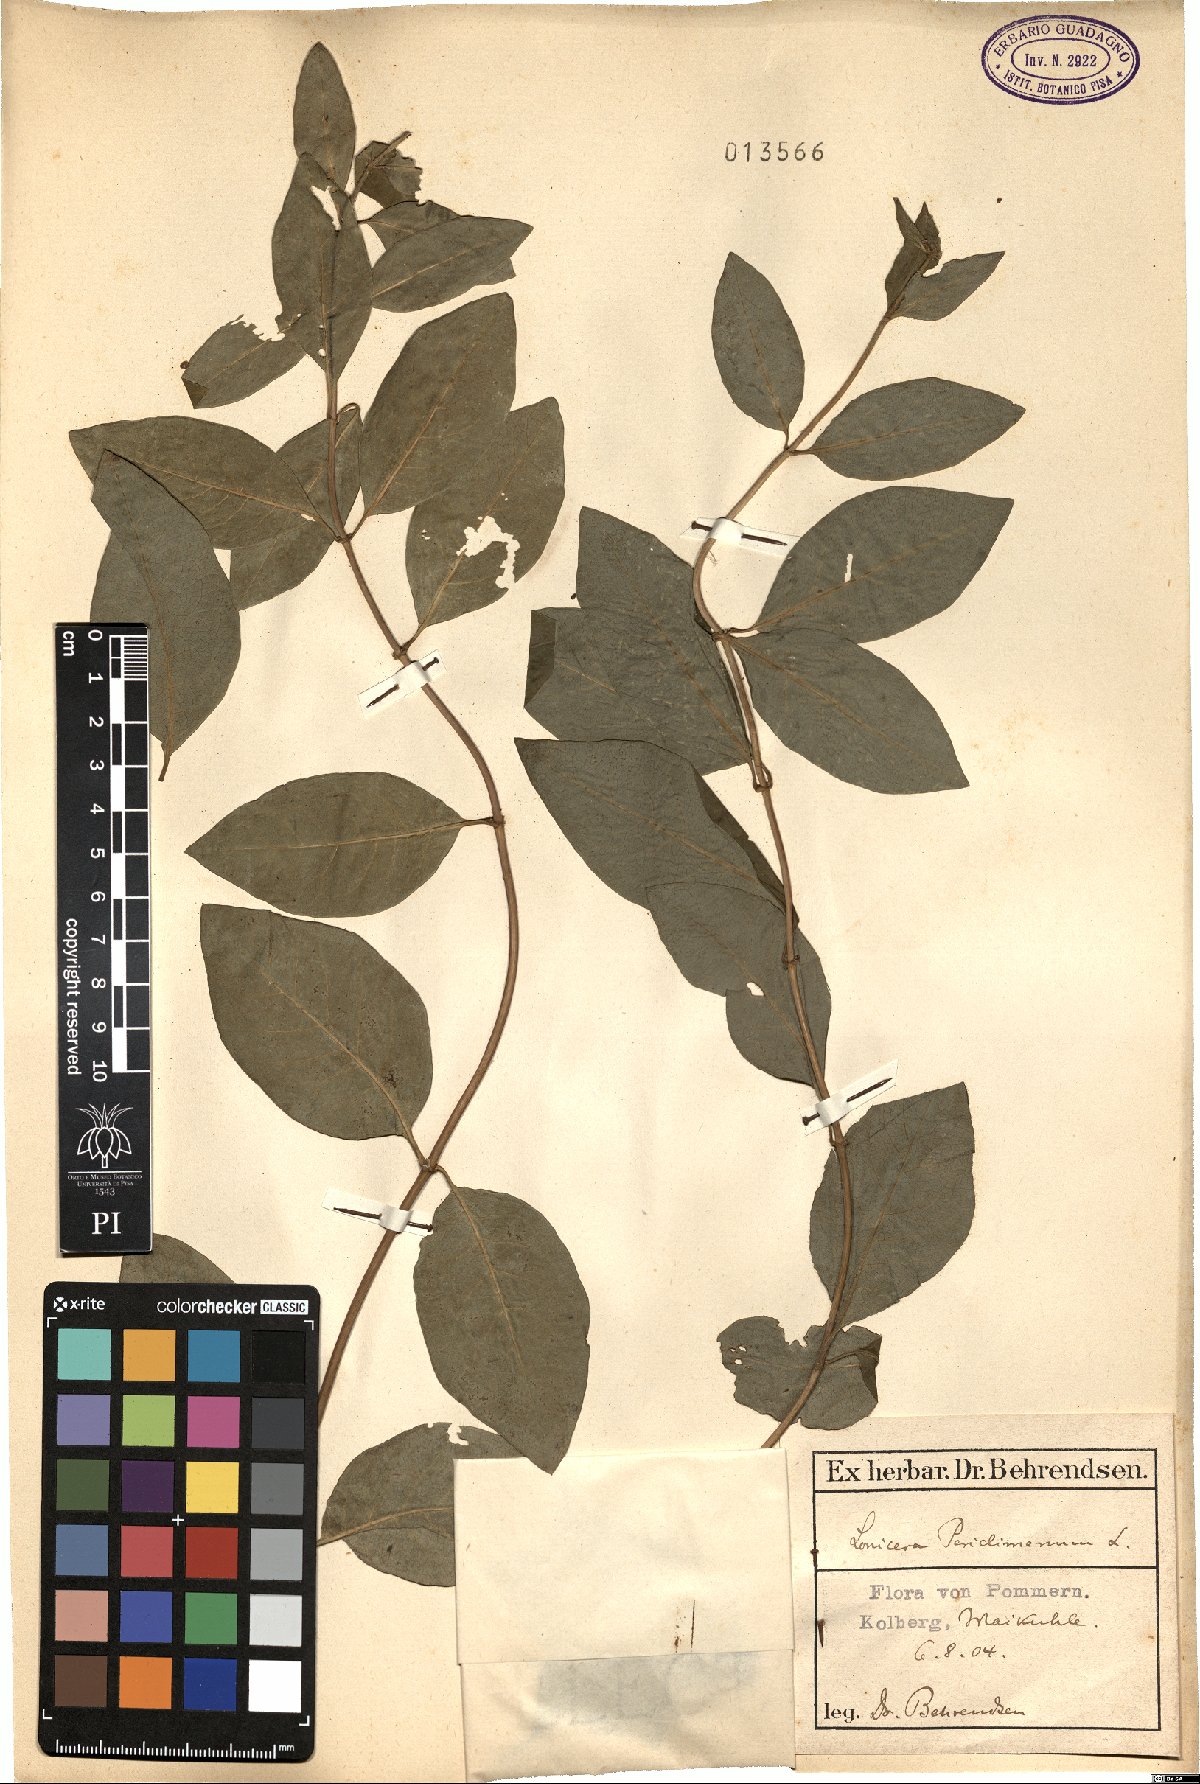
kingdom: Plantae
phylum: Tracheophyta
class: Magnoliopsida
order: Dipsacales
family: Caprifoliaceae
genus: Lonicera
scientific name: Lonicera periclymenum
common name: European honeysuckle
